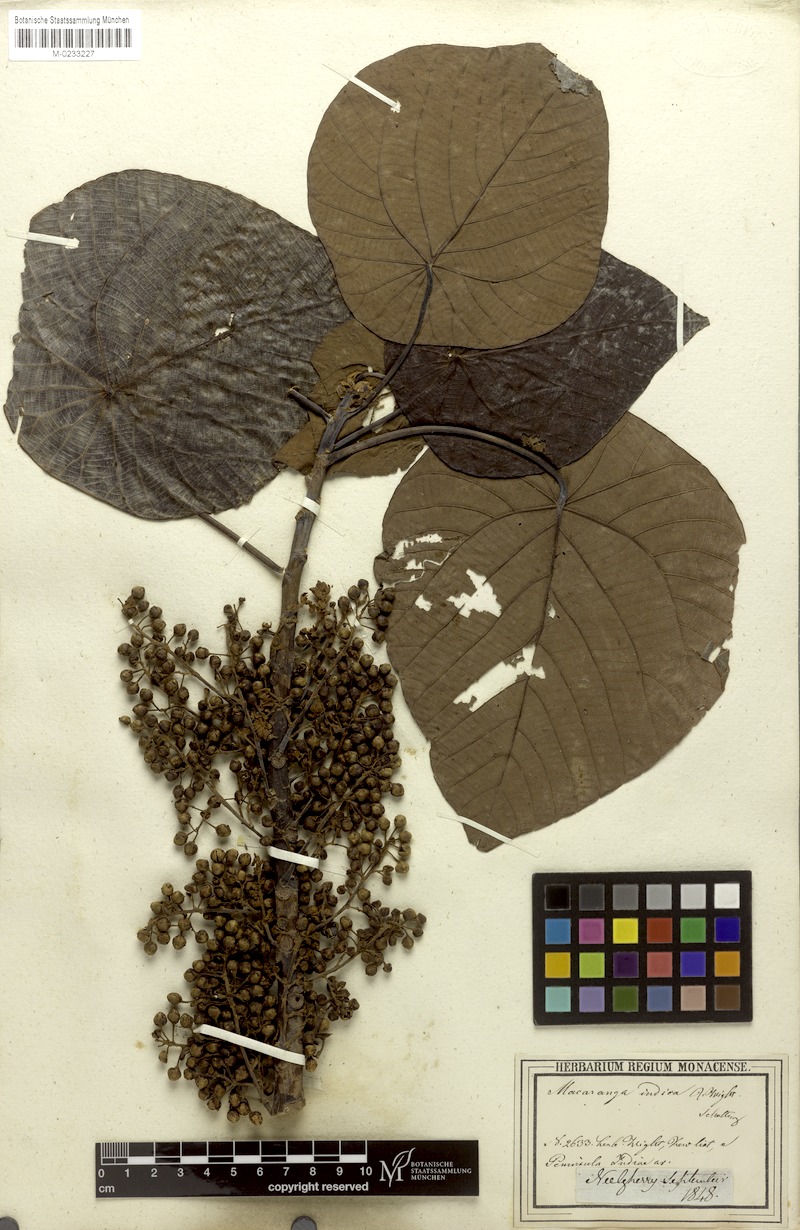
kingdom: Plantae
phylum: Tracheophyta
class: Magnoliopsida
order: Malpighiales
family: Euphorbiaceae
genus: Macaranga
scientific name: Macaranga indica
